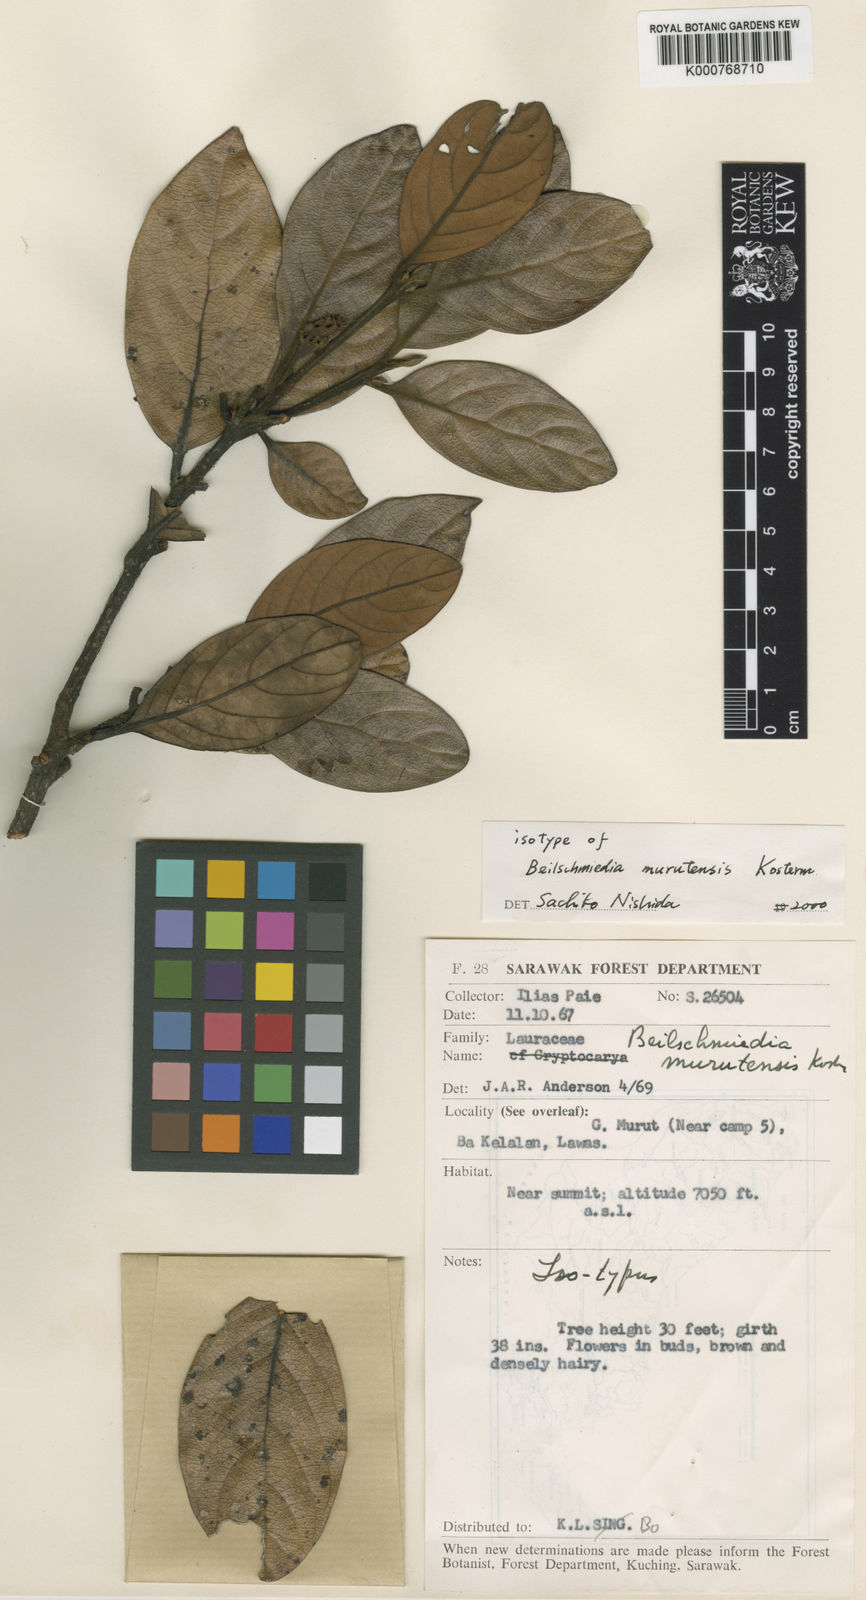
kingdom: Plantae
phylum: Tracheophyta
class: Magnoliopsida
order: Laurales
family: Lauraceae
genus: Beilschmiedia
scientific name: Beilschmiedia murutensis
